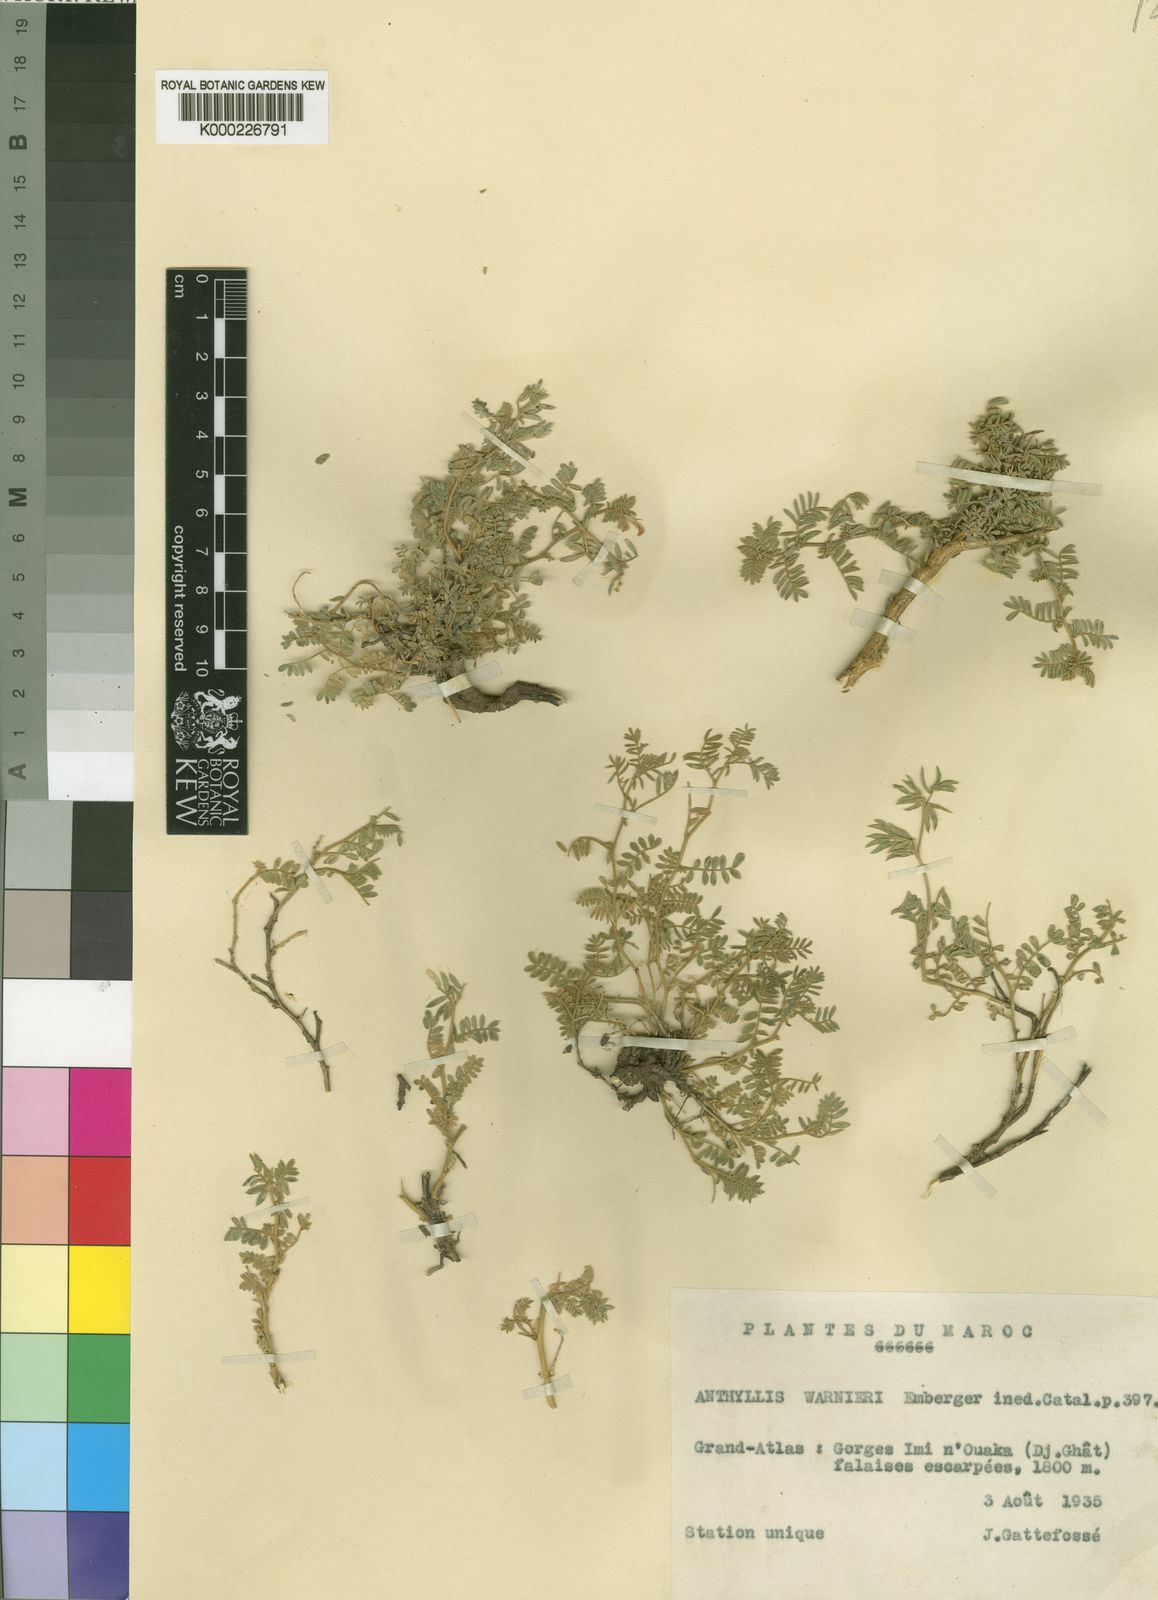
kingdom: Plantae
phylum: Tracheophyta
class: Magnoliopsida
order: Fabales
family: Fabaceae
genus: Anthyllis
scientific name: Anthyllis warnieri
